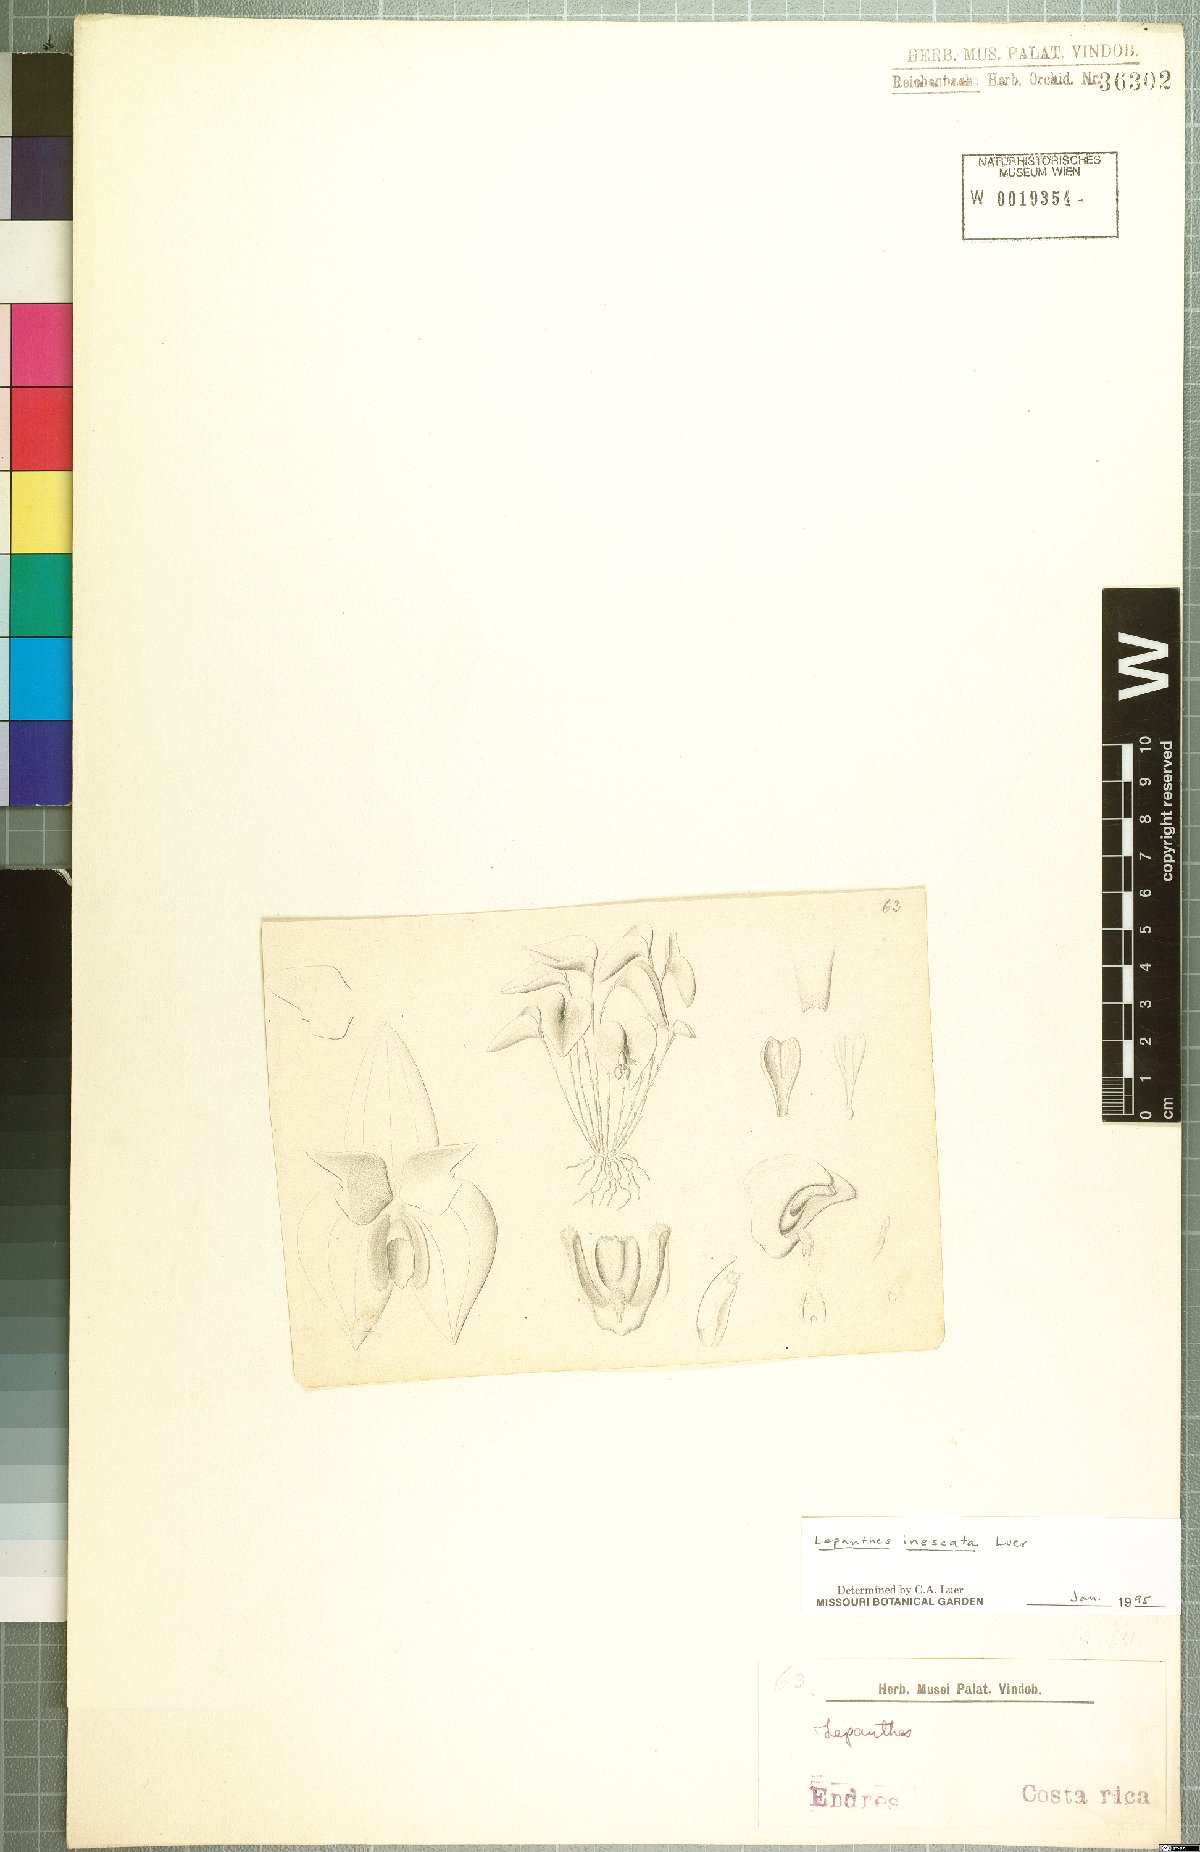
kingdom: Plantae
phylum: Tracheophyta
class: Liliopsida
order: Asparagales
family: Orchidaceae
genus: Lepanthes
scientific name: Lepanthes inescata
